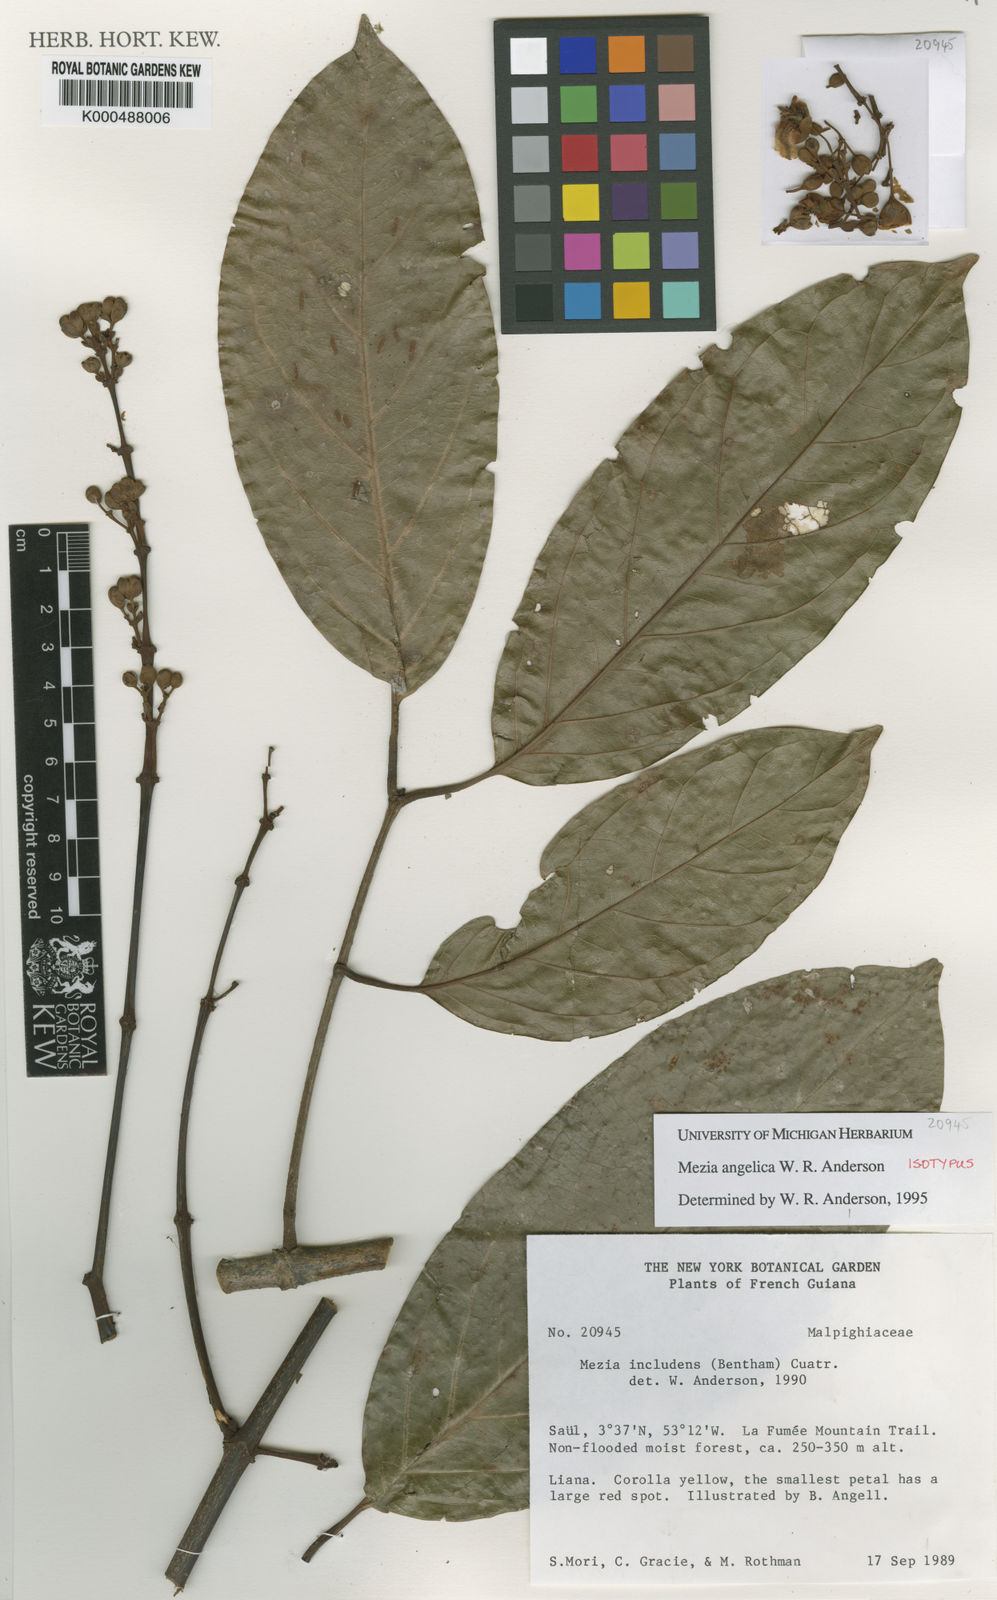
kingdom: Plantae
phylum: Tracheophyta
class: Magnoliopsida
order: Malpighiales
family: Malpighiaceae
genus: Mezia
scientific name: Mezia angelica
